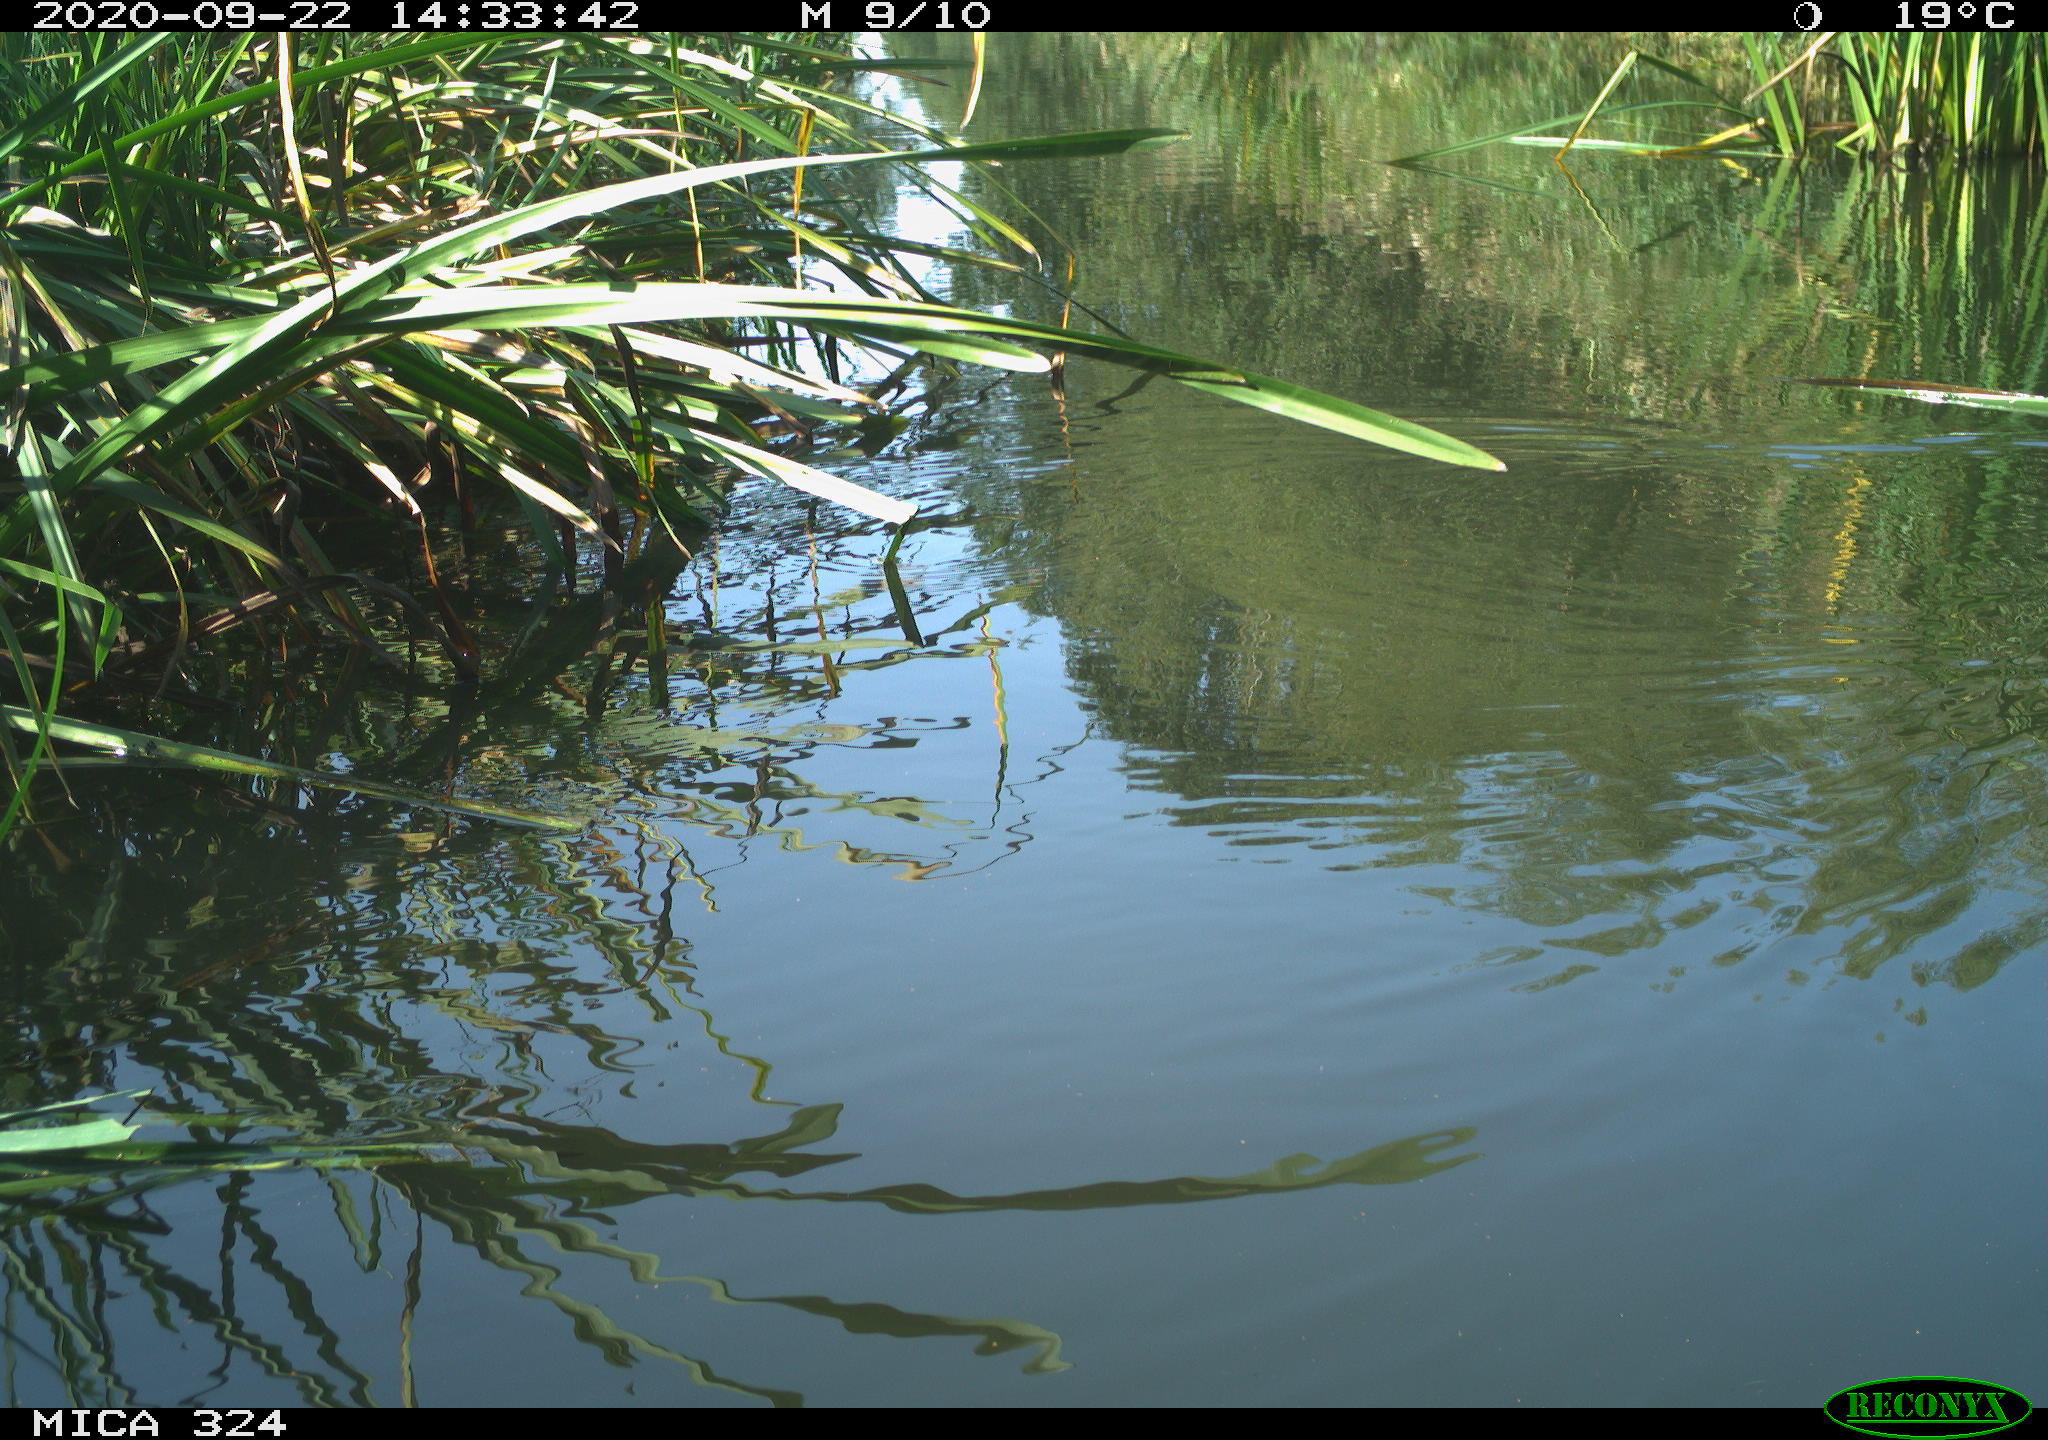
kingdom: Animalia
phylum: Chordata
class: Aves
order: Gruiformes
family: Rallidae
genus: Gallinula
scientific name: Gallinula chloropus
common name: Common moorhen
